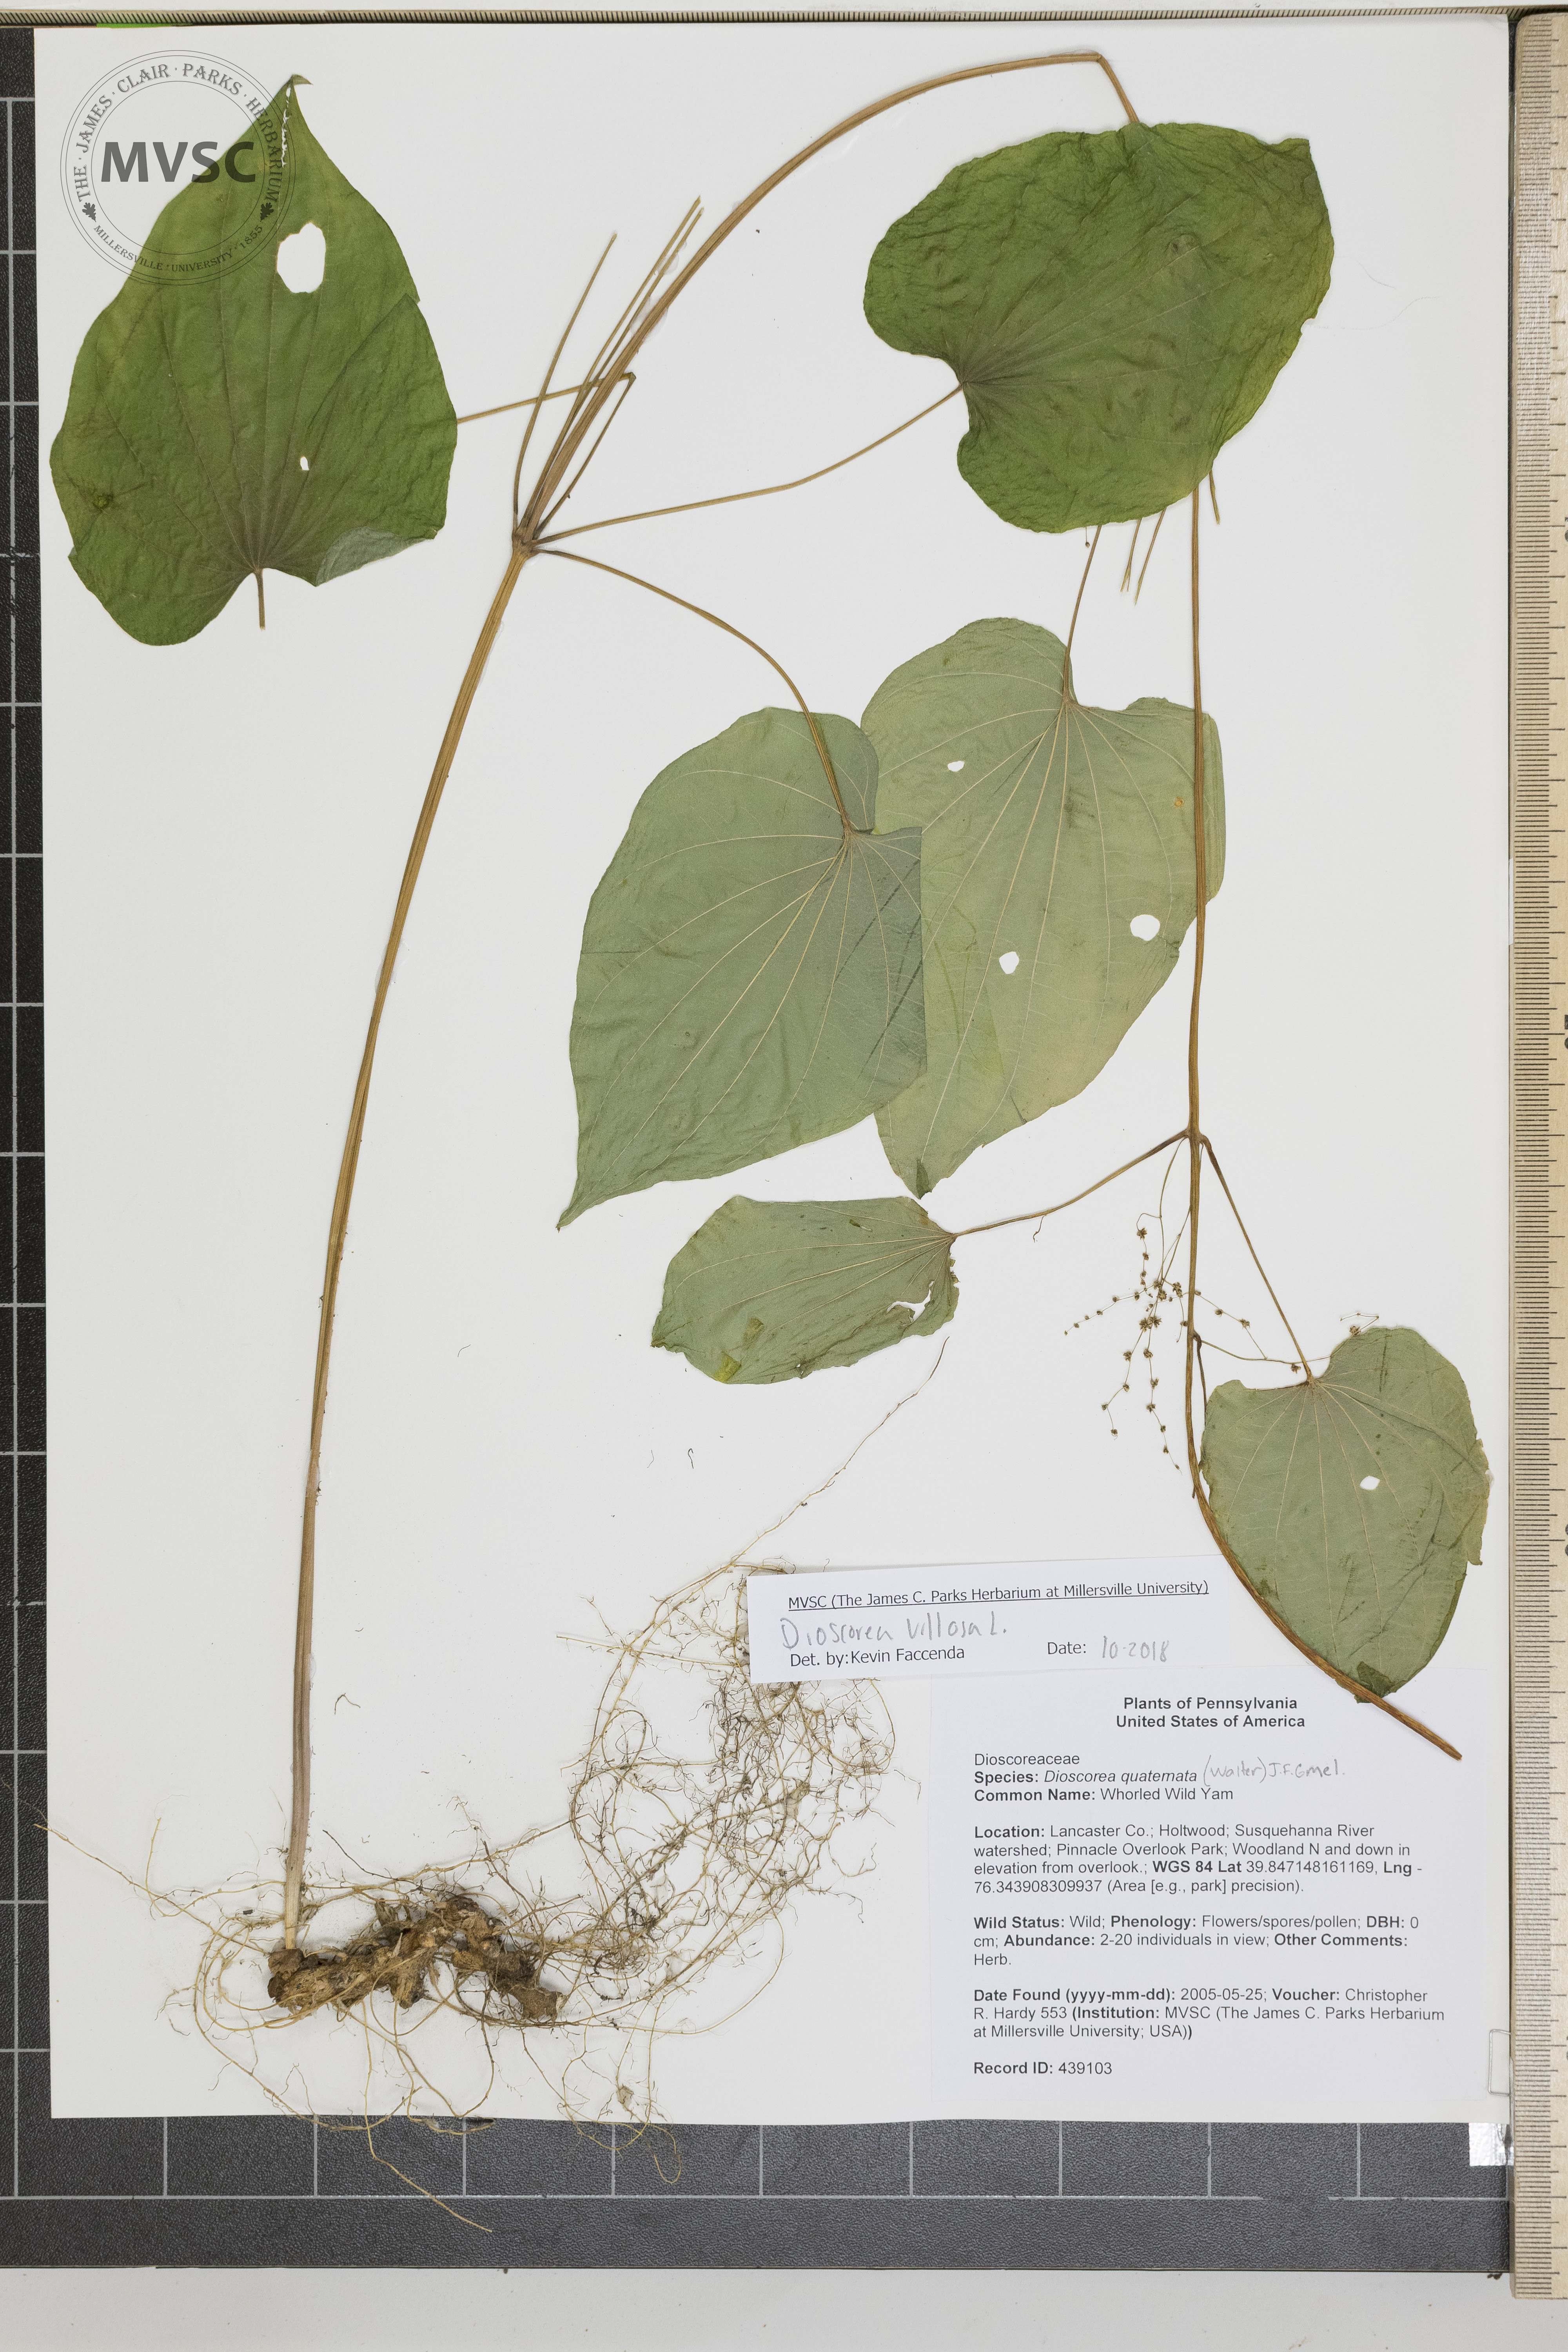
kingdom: Plantae
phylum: Tracheophyta
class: Liliopsida
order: Dioscoreales
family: Dioscoreaceae
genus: Dioscorea
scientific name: Dioscorea villosa
